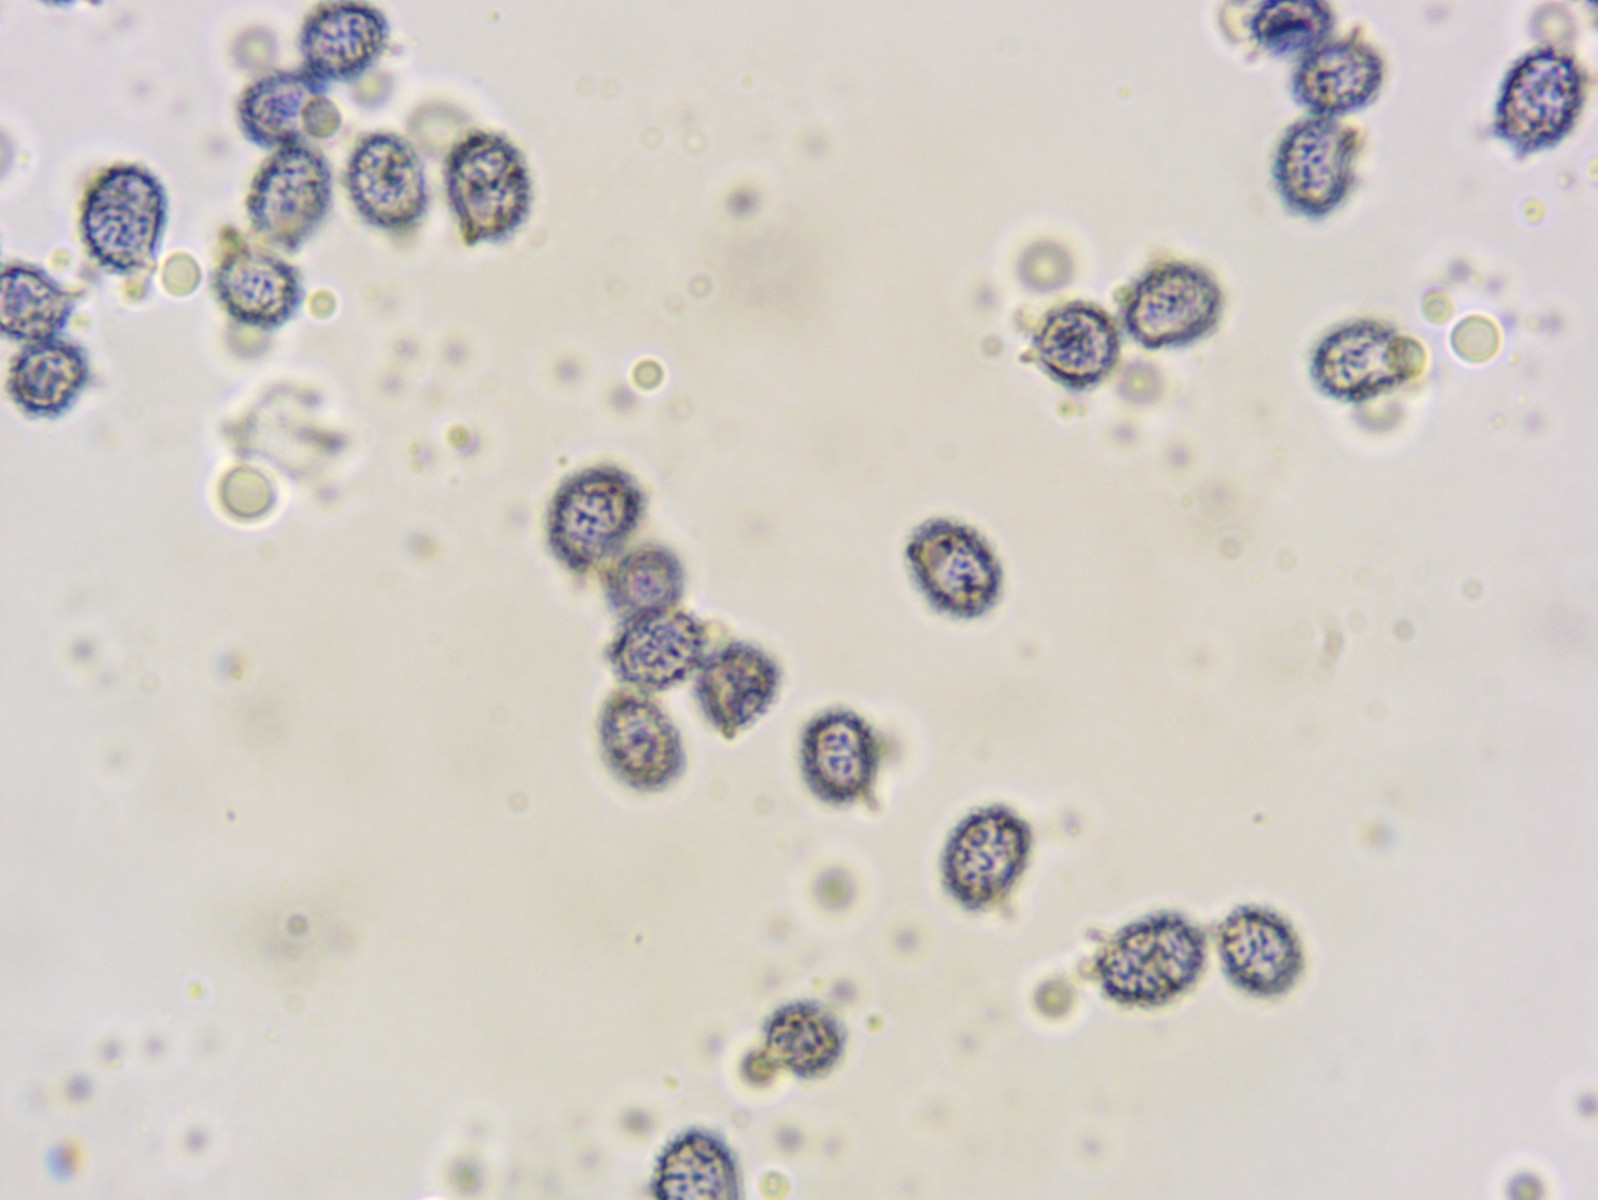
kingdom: Fungi
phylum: Basidiomycota
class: Agaricomycetes
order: Russulales
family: Russulaceae
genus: Russula
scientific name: Russula parazurea
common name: blågrå skørhat
